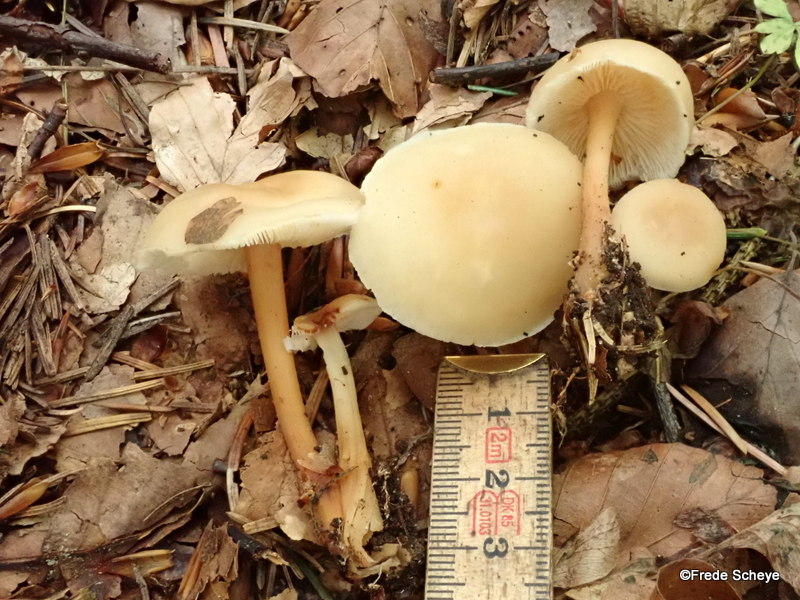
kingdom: Fungi
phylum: Basidiomycota
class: Agaricomycetes
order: Agaricales
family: Omphalotaceae
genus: Gymnopus
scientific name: Gymnopus dryophilus
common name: løv-fladhat
